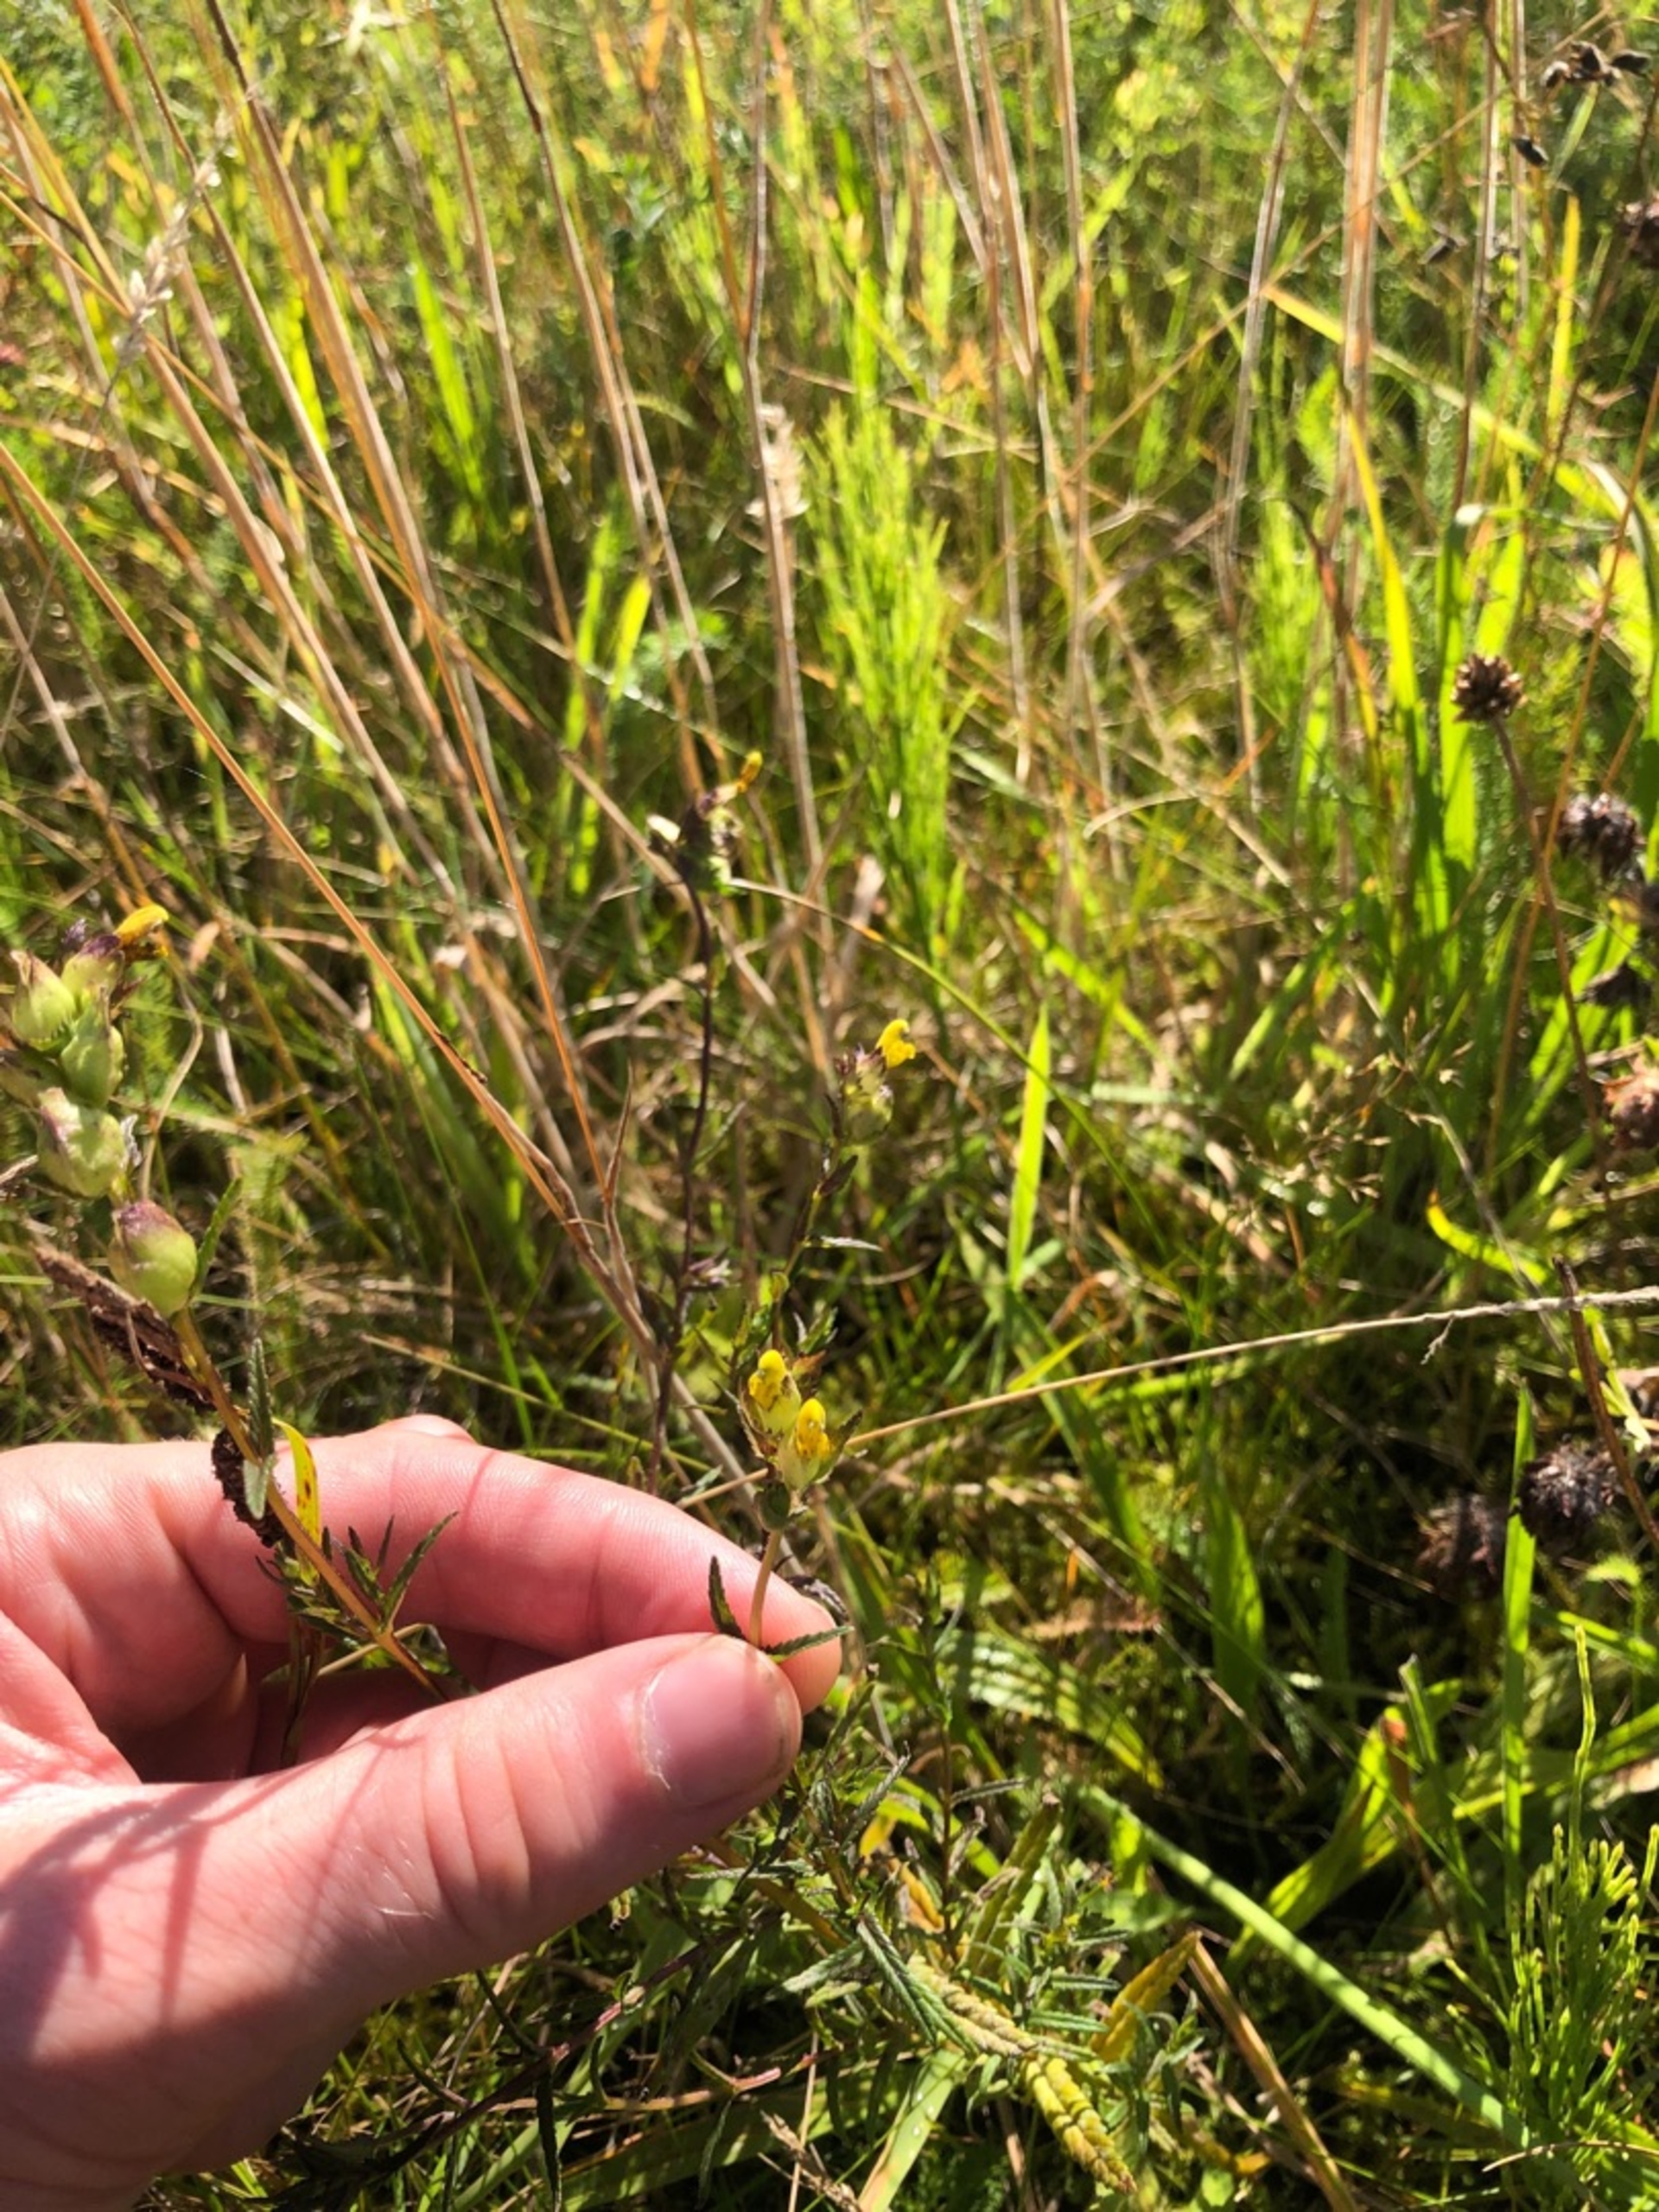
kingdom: Plantae
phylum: Tracheophyta
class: Magnoliopsida
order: Lamiales
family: Orobanchaceae
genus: Rhinanthus
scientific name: Rhinanthus minor
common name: Liden skjaller
